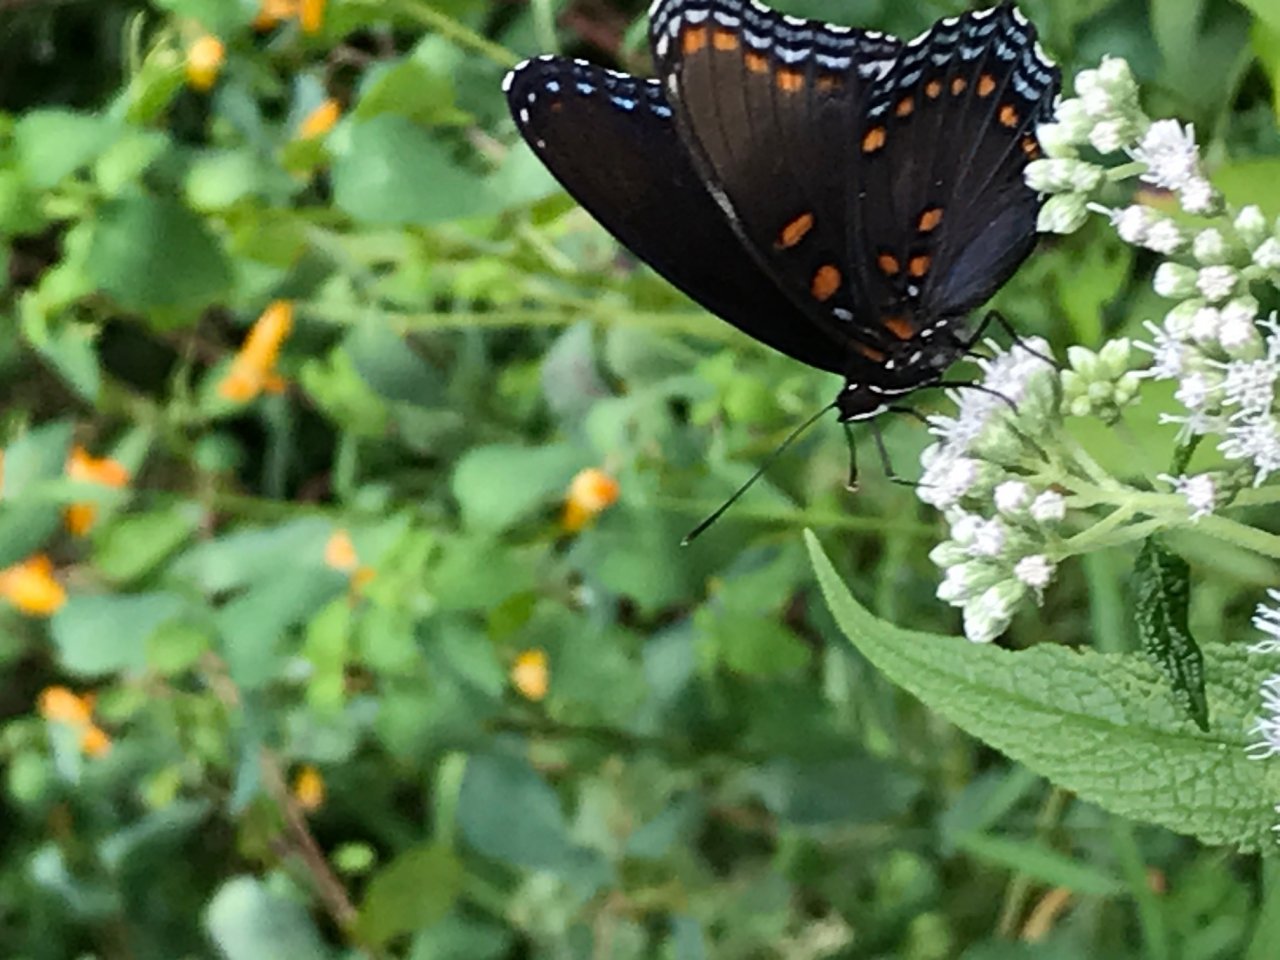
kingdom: Animalia
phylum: Arthropoda
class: Insecta
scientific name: Insecta
